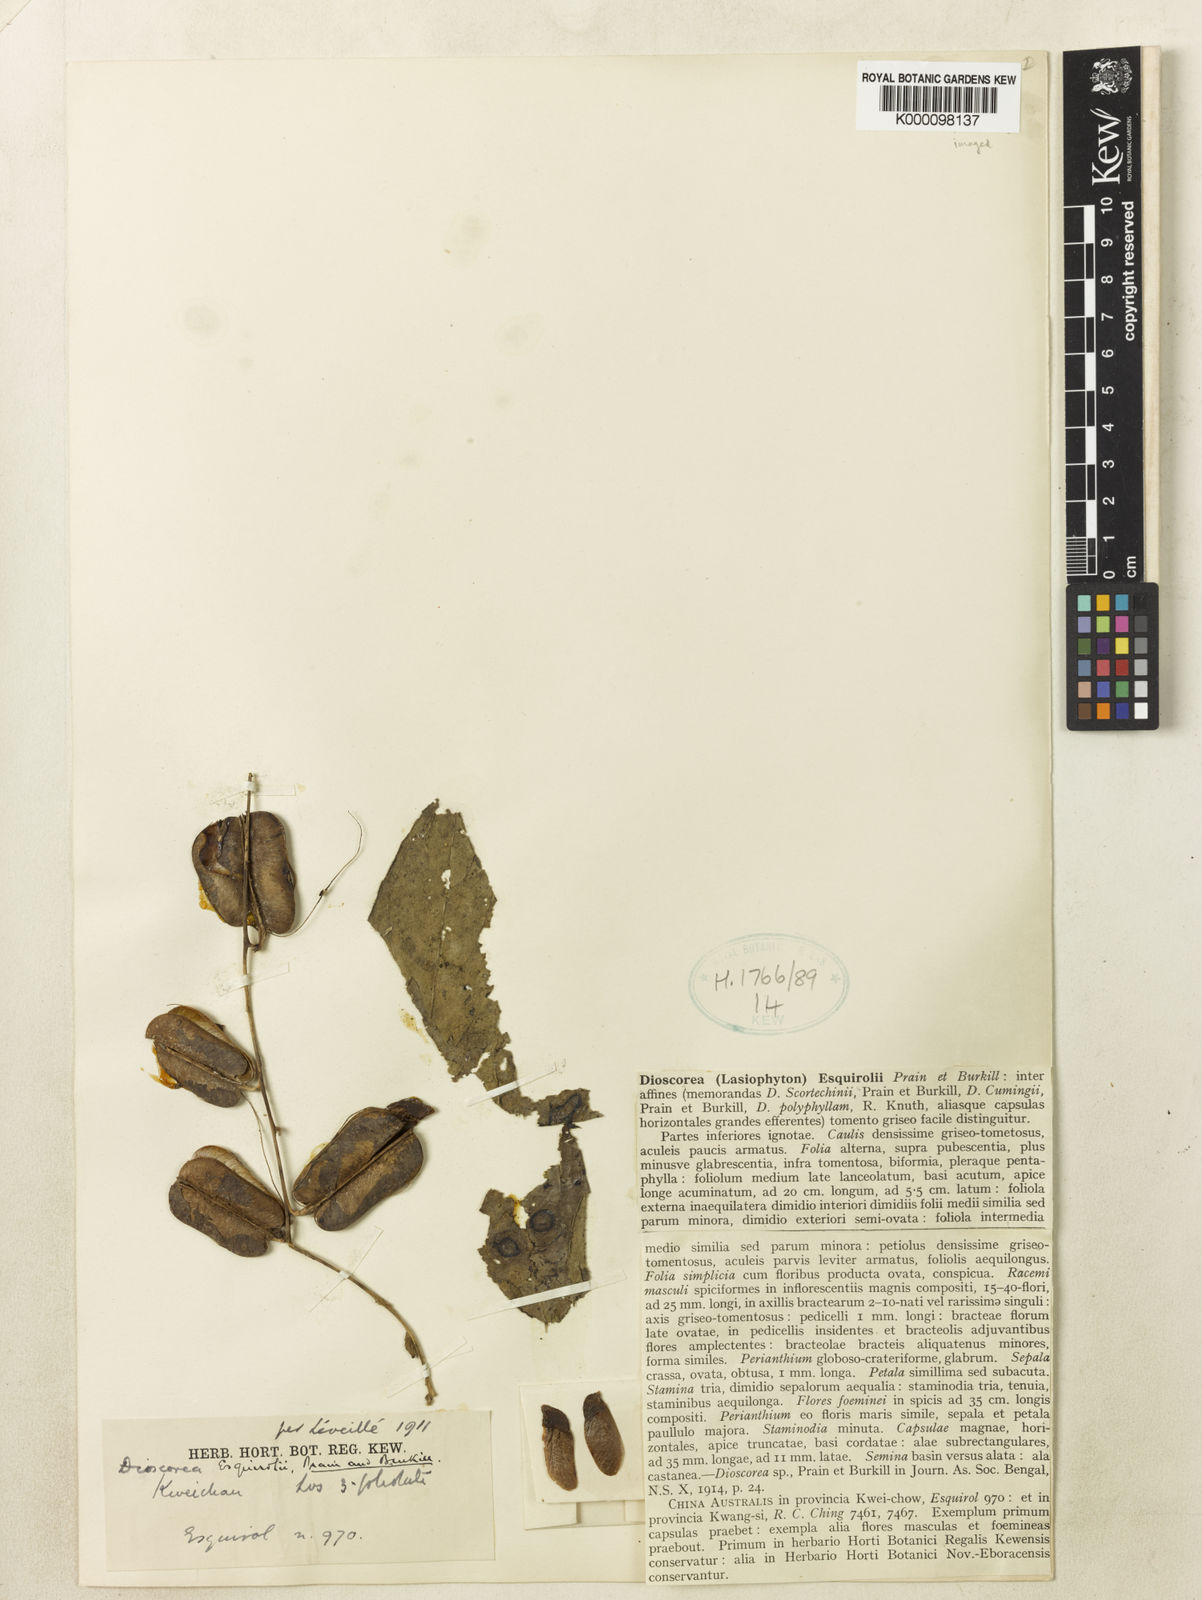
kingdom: Plantae
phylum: Tracheophyta
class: Liliopsida
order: Dioscoreales
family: Dioscoreaceae
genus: Dioscorea
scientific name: Dioscorea esquirolii
